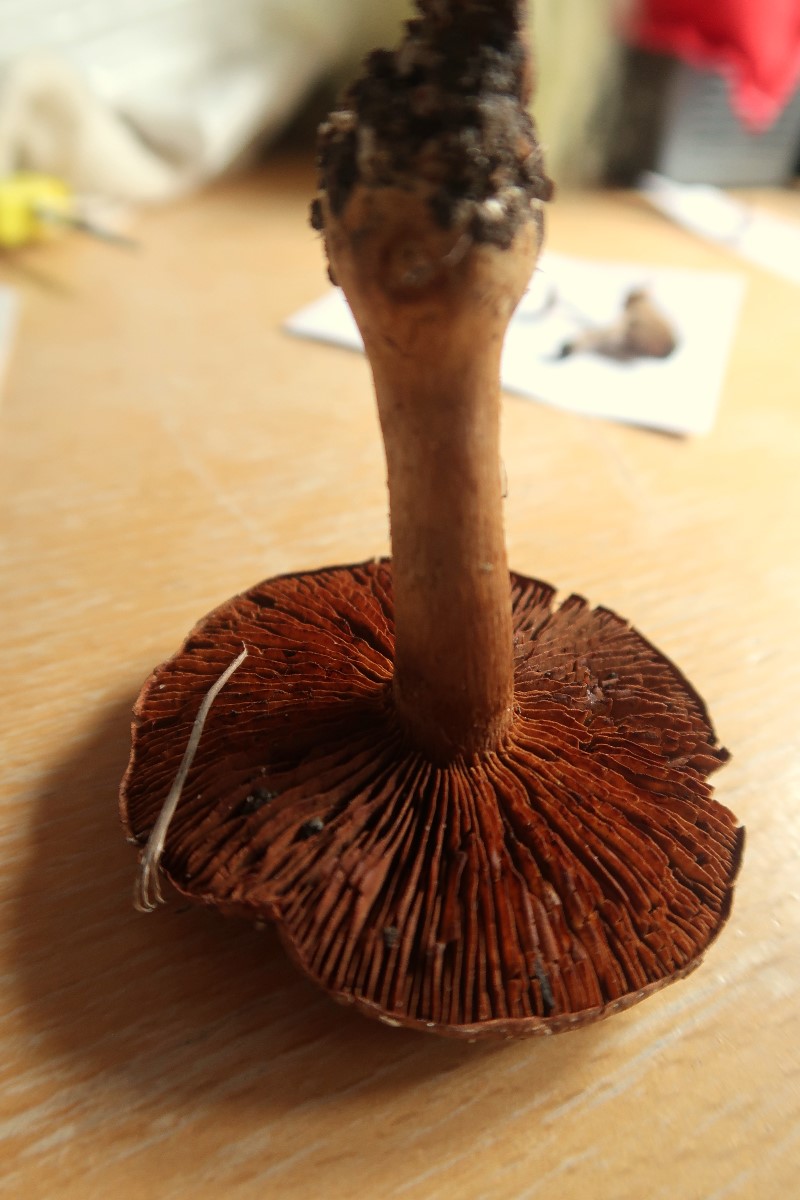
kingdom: Fungi
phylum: Basidiomycota
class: Agaricomycetes
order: Agaricales
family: Cortinariaceae
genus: Cortinarius
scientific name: Cortinarius
